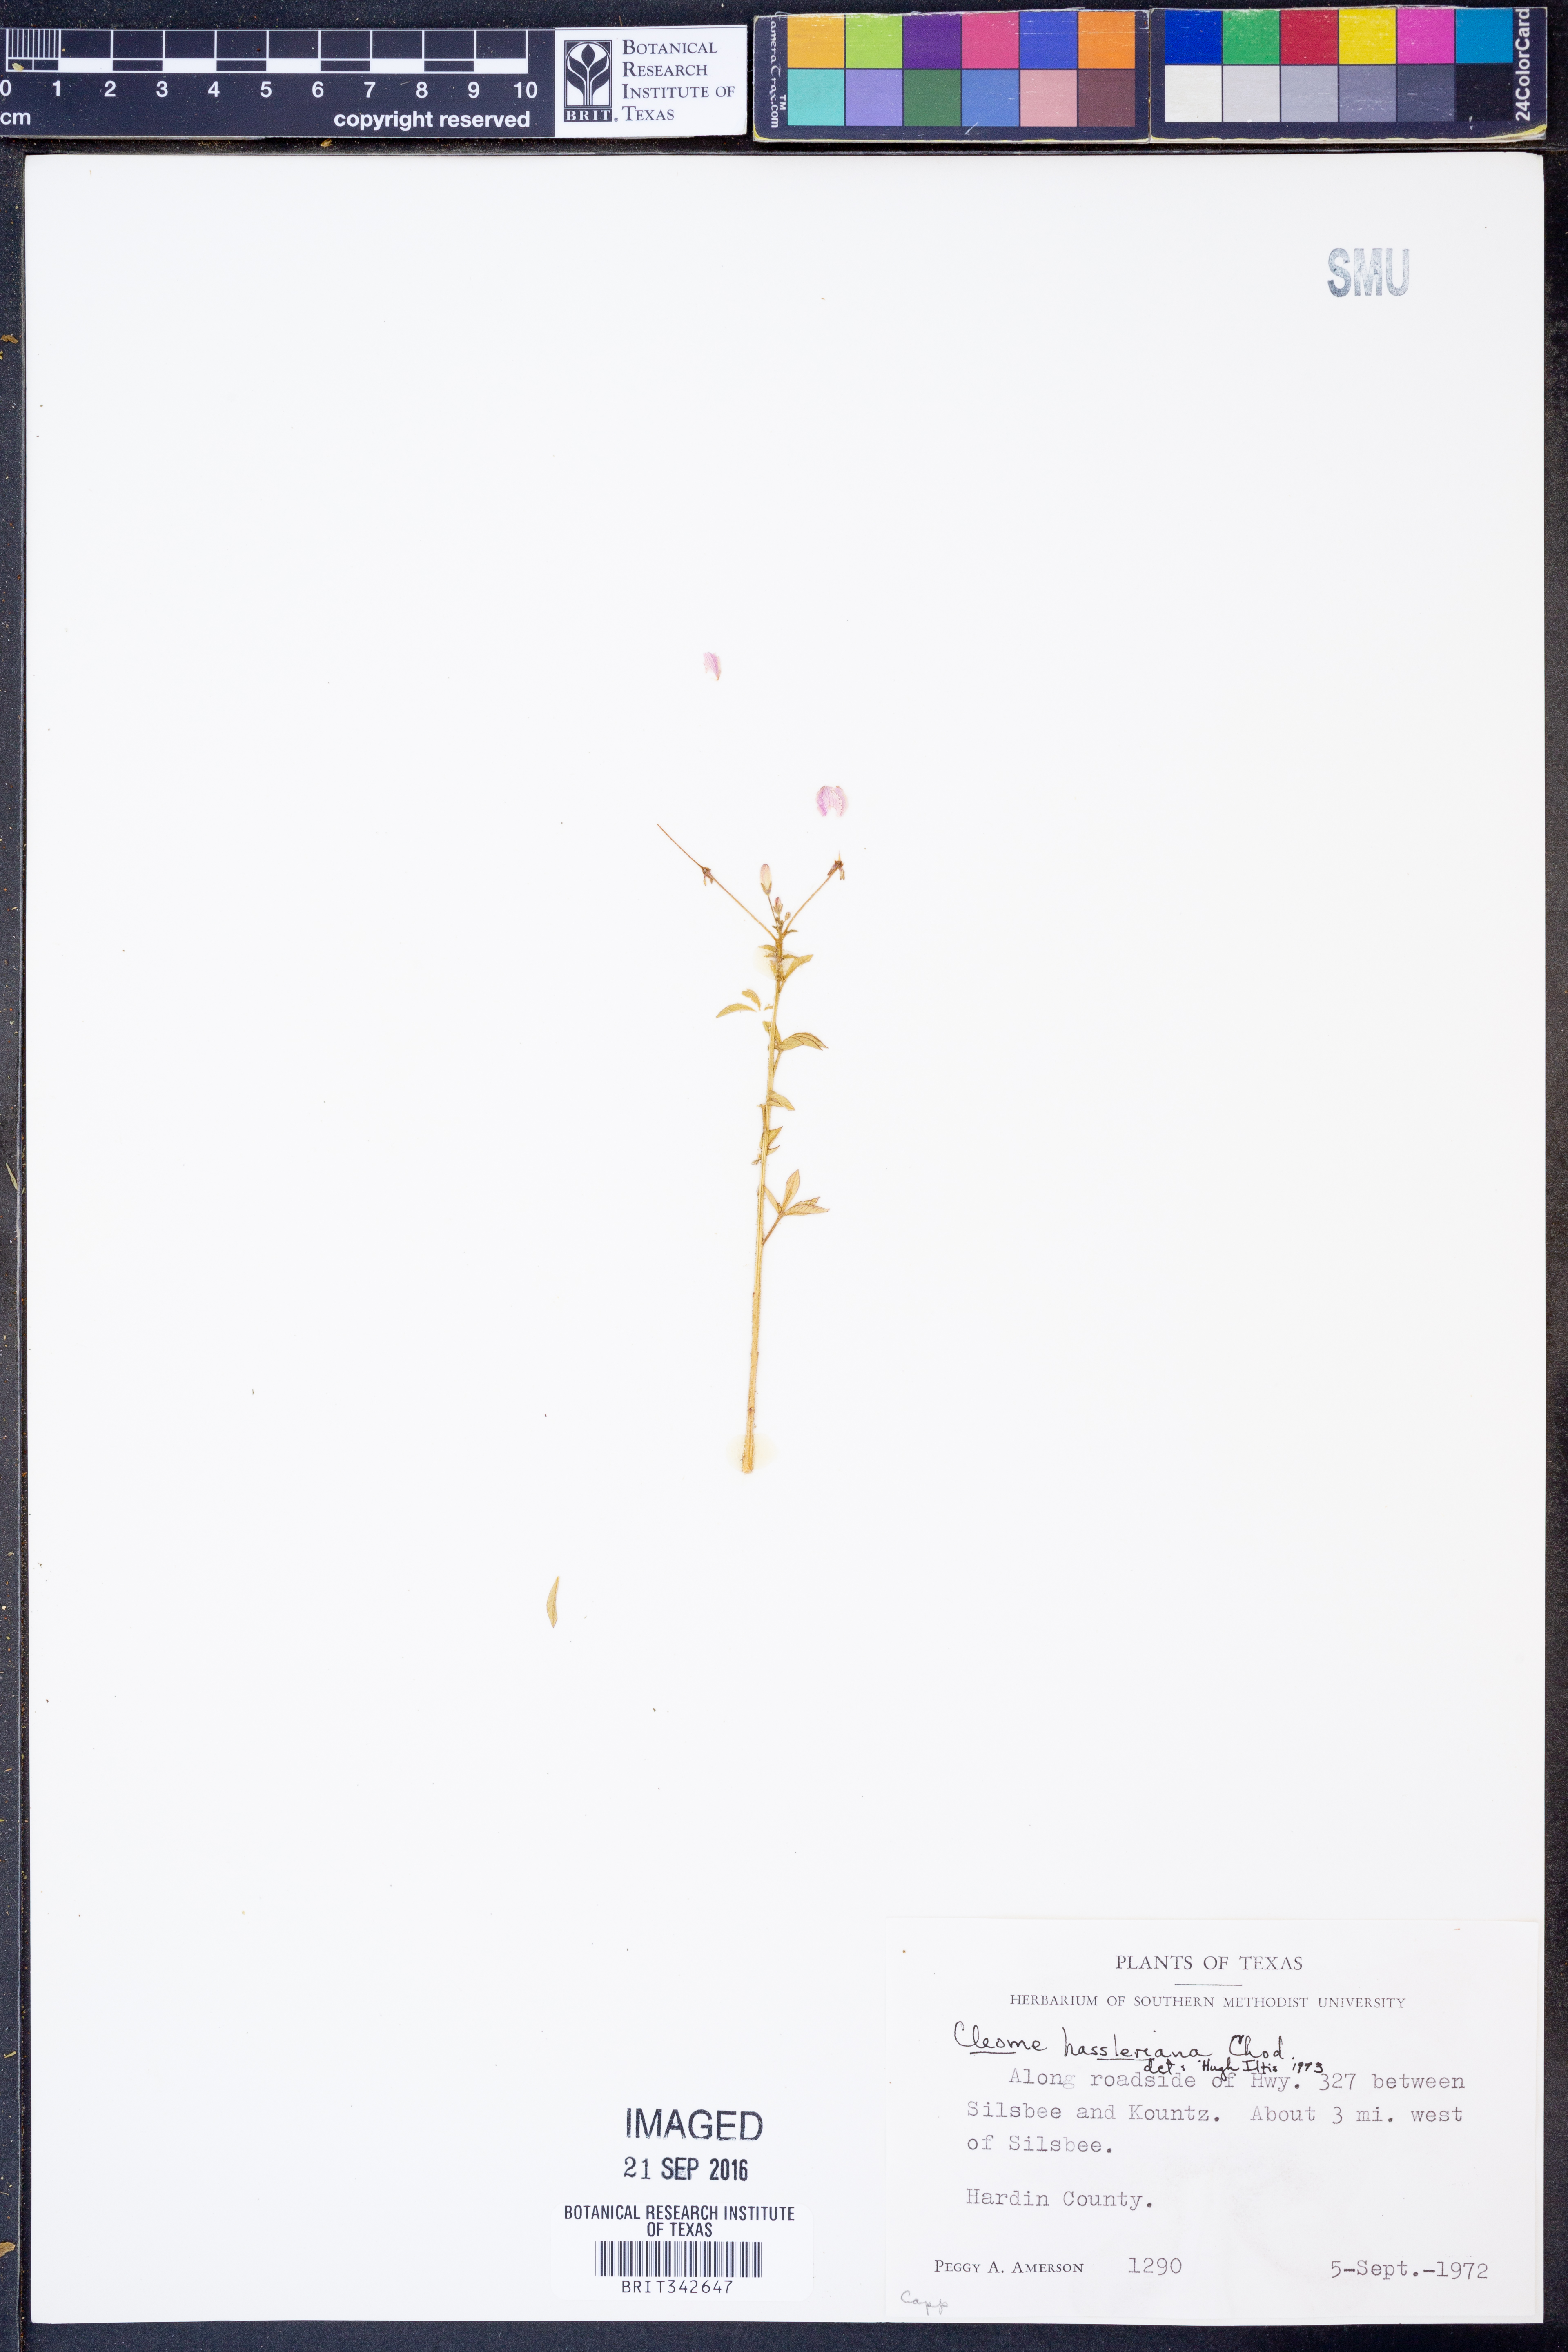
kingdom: Plantae
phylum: Tracheophyta
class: Magnoliopsida
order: Brassicales
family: Cleomaceae
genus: Tarenaya
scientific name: Tarenaya houtteana
